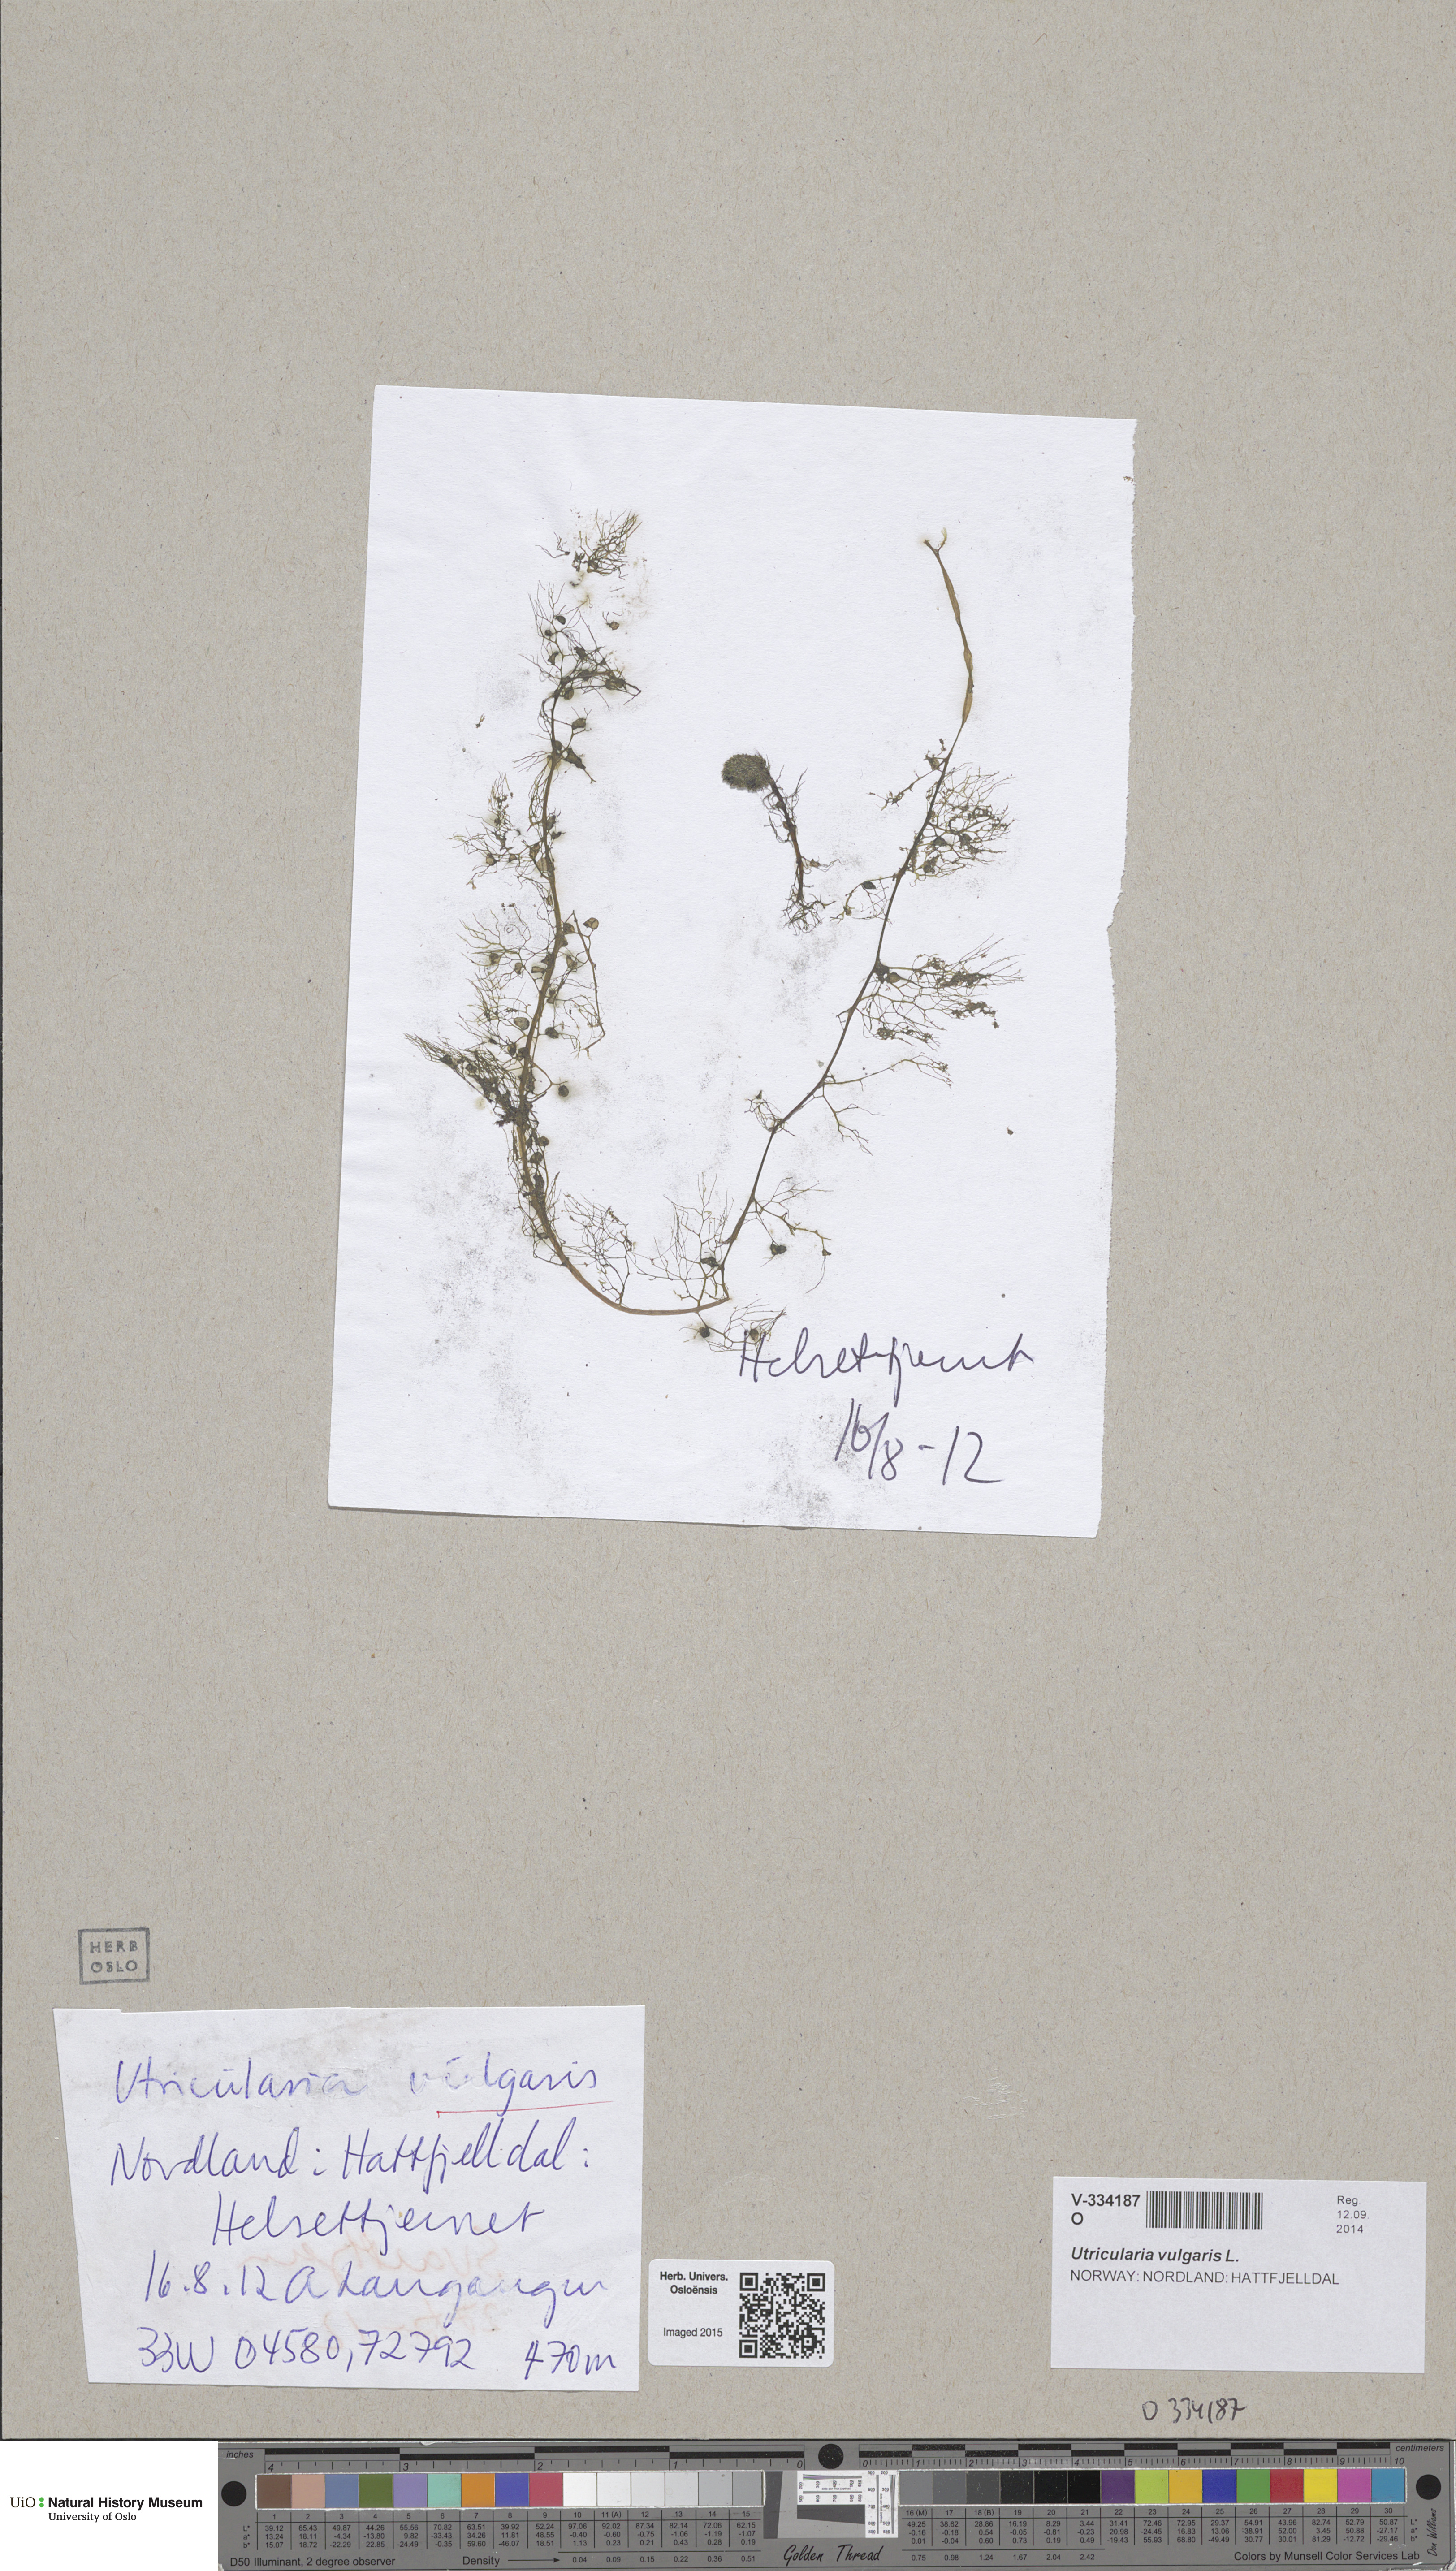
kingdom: Plantae
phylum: Tracheophyta
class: Magnoliopsida
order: Lamiales
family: Lentibulariaceae
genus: Utricularia
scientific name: Utricularia vulgaris
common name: Greater bladderwort
